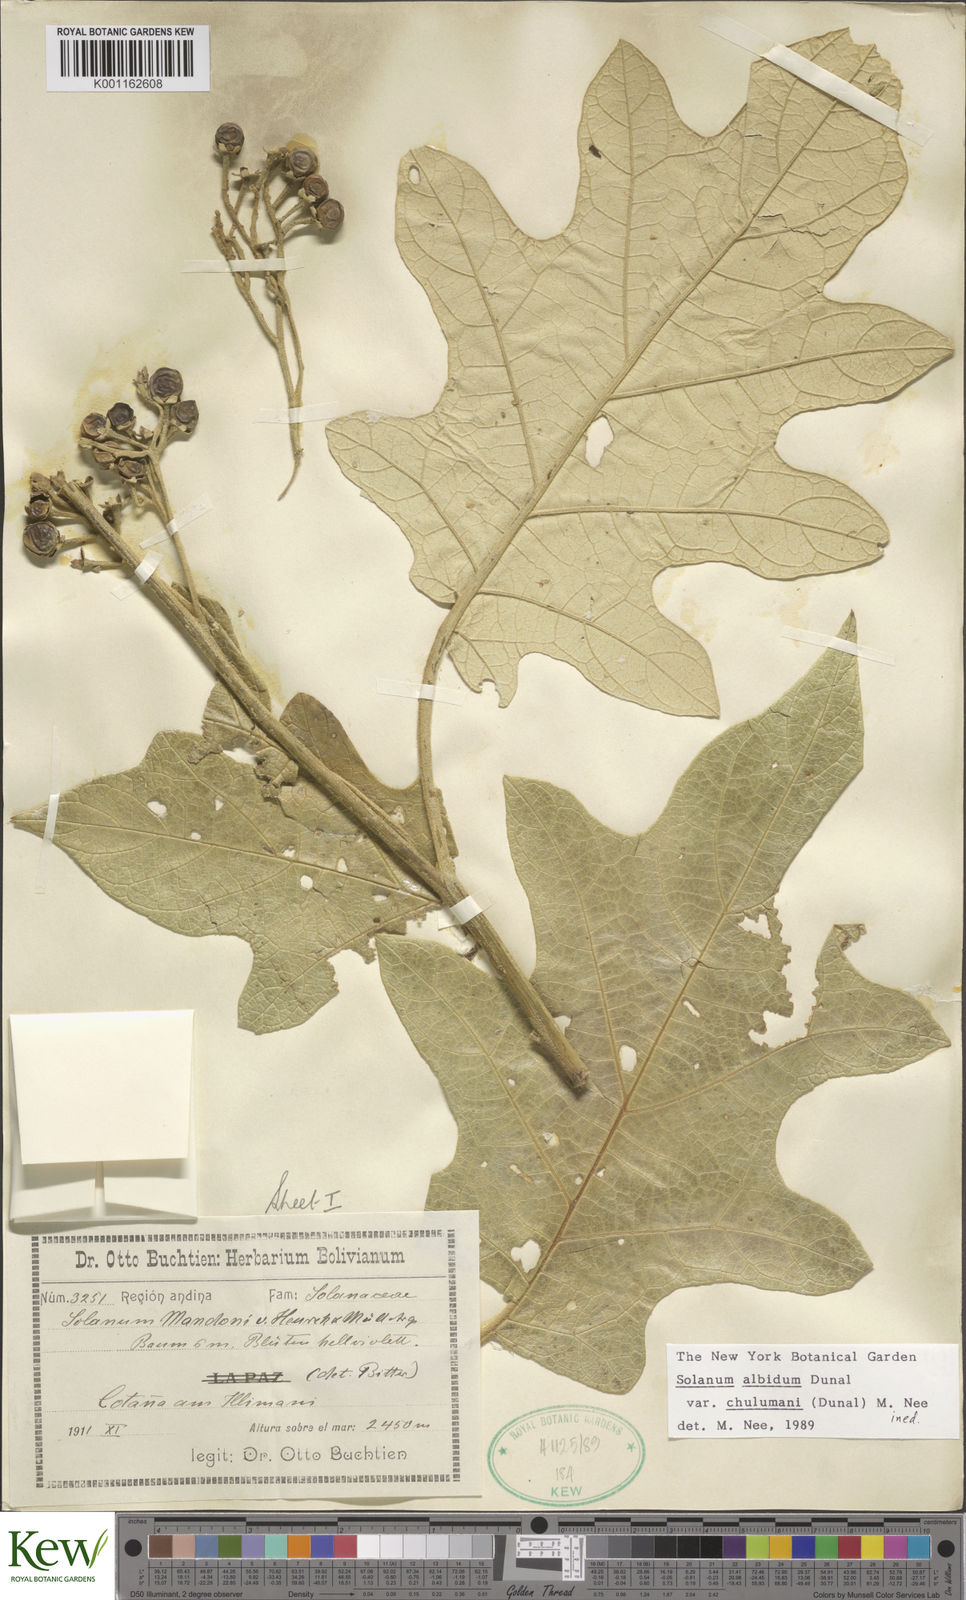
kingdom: Plantae
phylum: Tracheophyta
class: Magnoliopsida
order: Solanales
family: Solanaceae
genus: Solanum
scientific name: Solanum albidum
